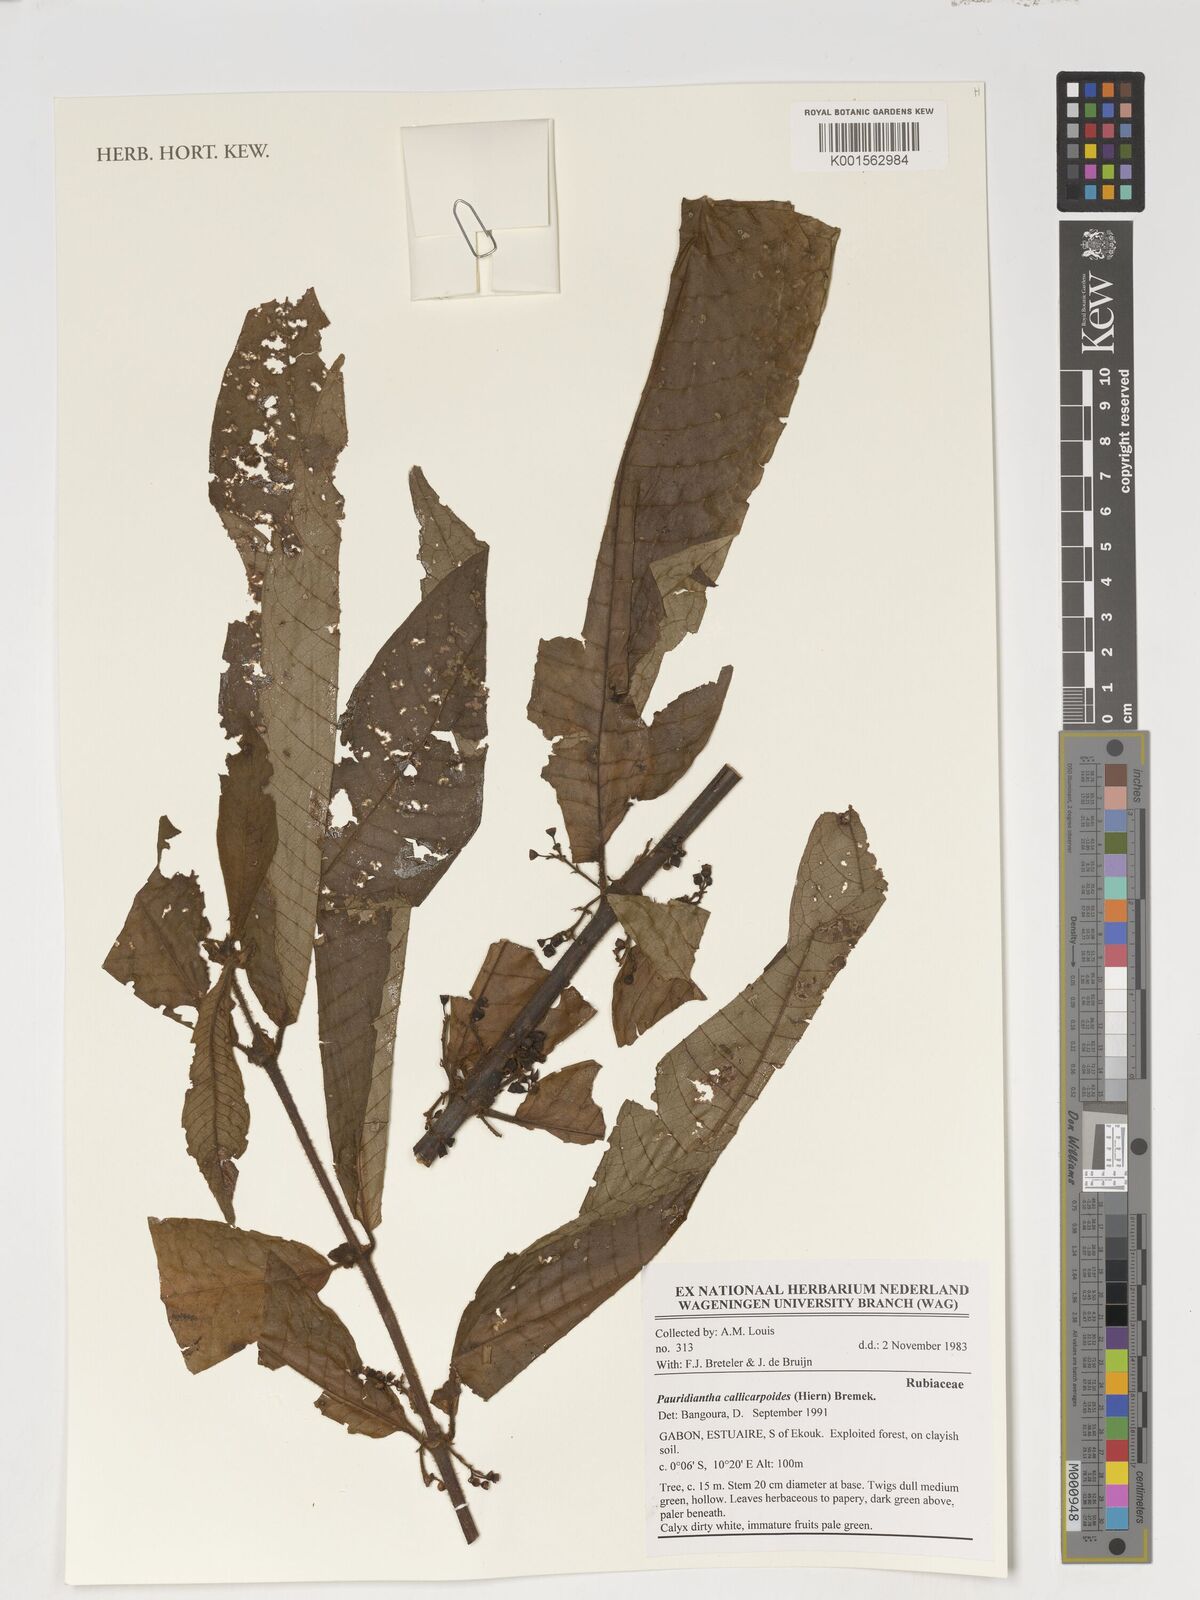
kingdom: Plantae
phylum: Tracheophyta
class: Magnoliopsida
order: Gentianales
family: Rubiaceae
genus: Pauridiantha
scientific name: Pauridiantha callicarpoides
